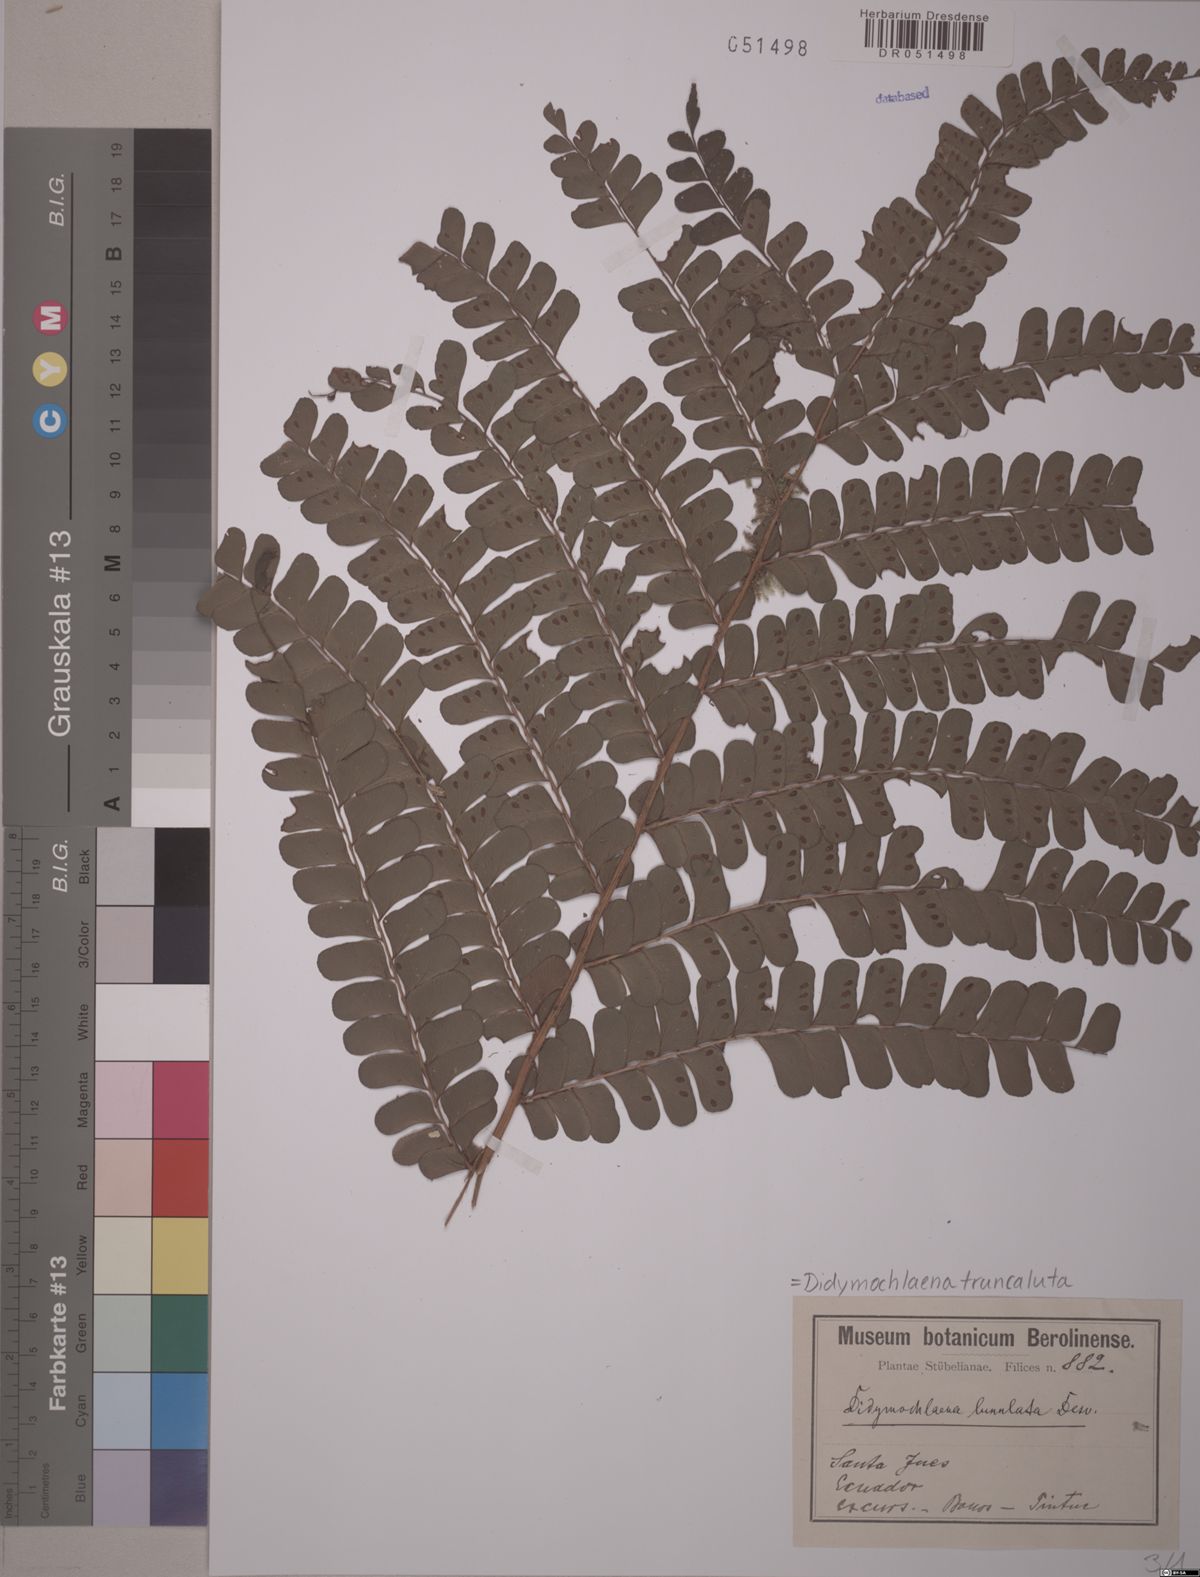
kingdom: Plantae
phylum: Tracheophyta
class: Polypodiopsida
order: Polypodiales
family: Didymochlaenaceae
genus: Didymochlaena
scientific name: Didymochlaena truncatula
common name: Mahogany fern
